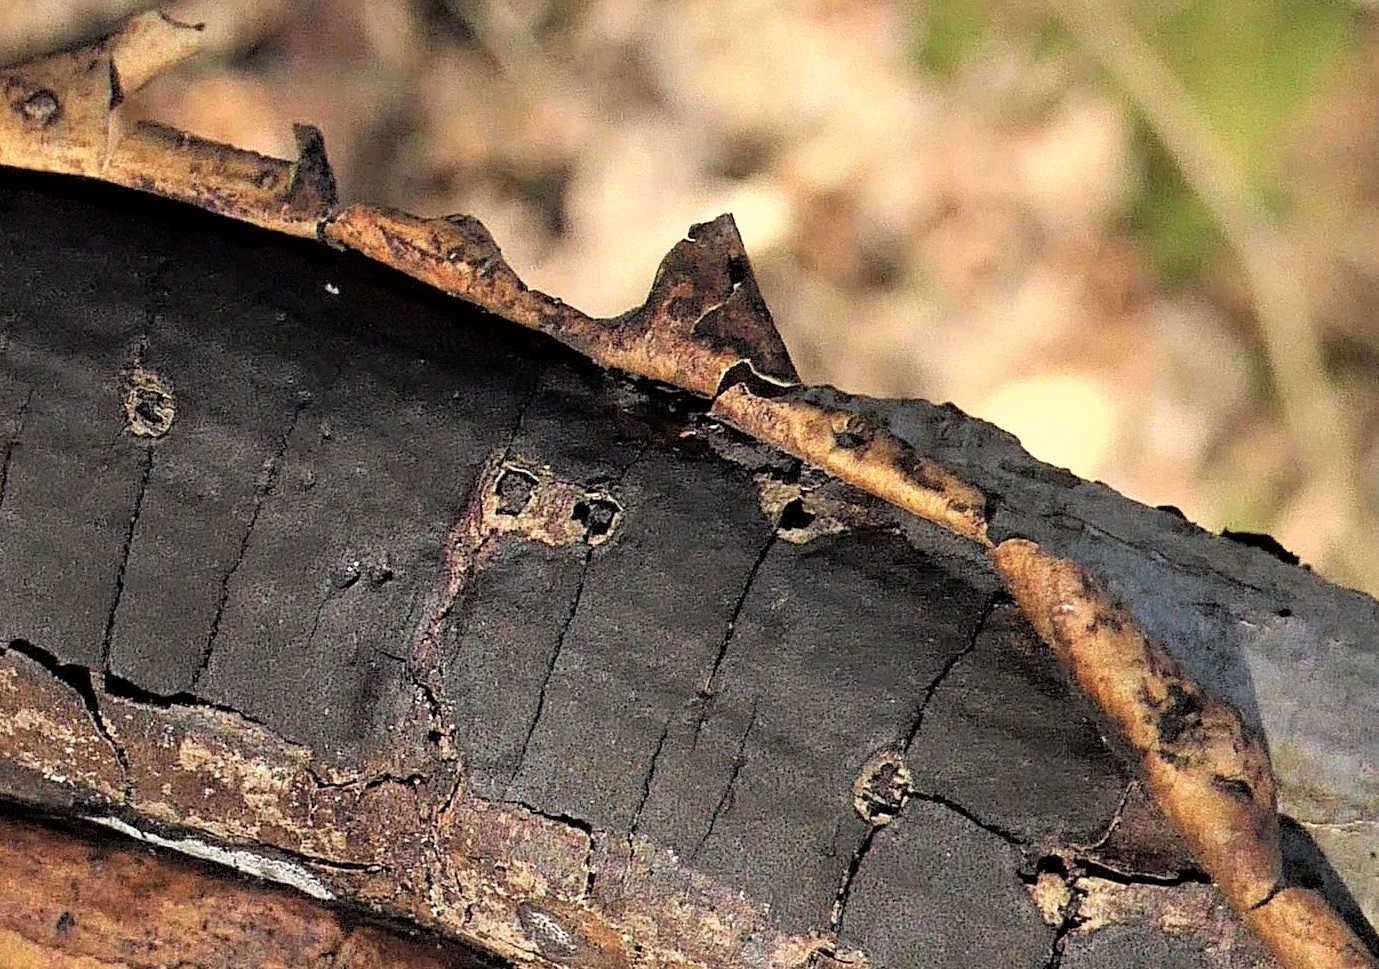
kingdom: Fungi
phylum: Ascomycota
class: Sordariomycetes
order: Xylariales
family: Diatrypaceae
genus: Diatrype
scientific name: Diatrype decorticata
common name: barksprænger-kulskorpe
